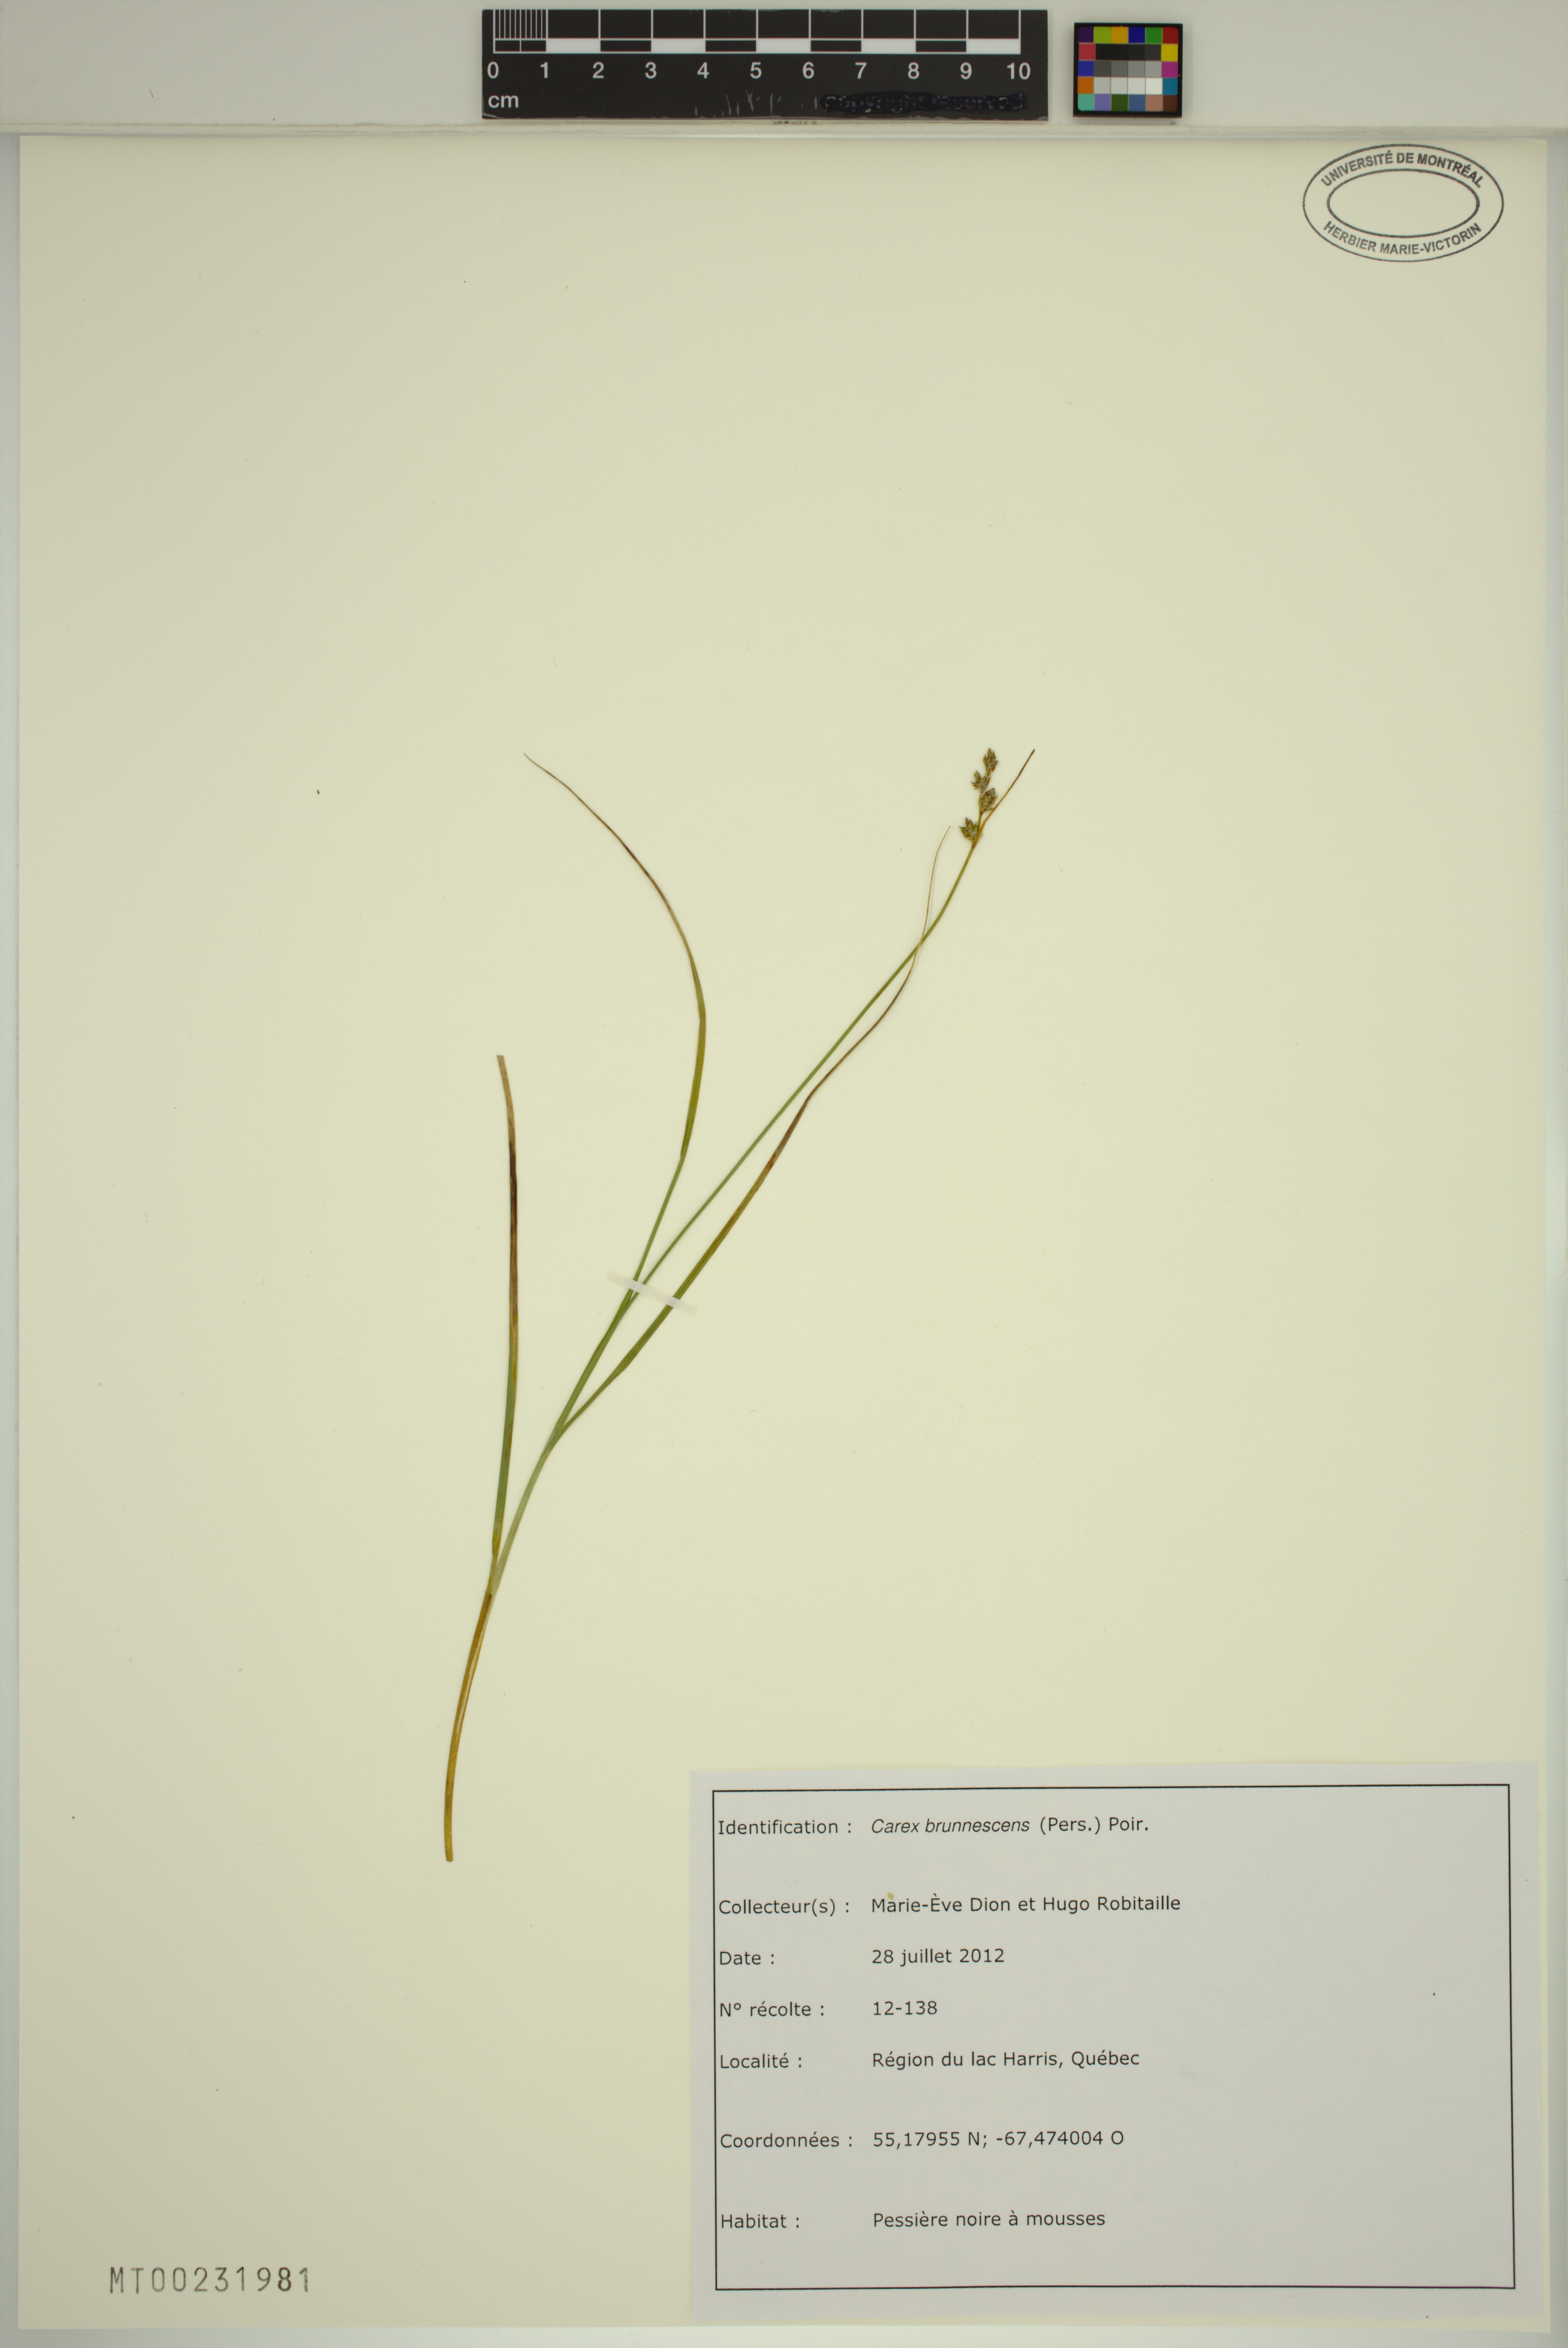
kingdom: Plantae
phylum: Tracheophyta
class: Liliopsida
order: Poales
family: Cyperaceae
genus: Carex
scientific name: Carex brunnescens
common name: Brown sedge
